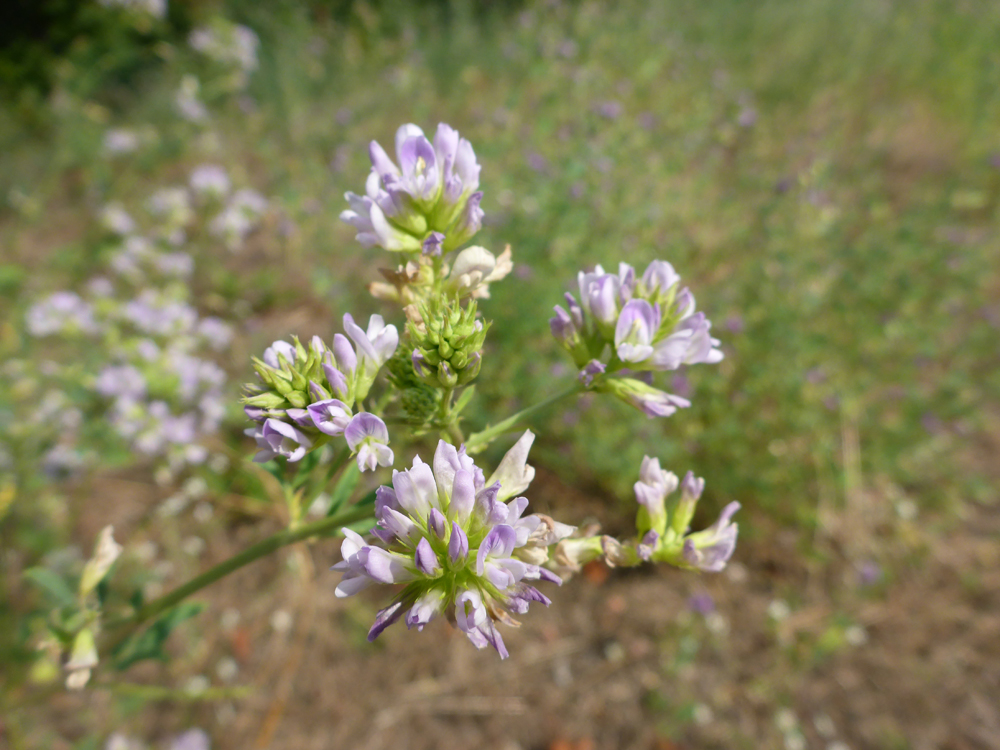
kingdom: Plantae
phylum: Tracheophyta
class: Magnoliopsida
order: Fabales
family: Fabaceae
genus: Medicago
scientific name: Medicago varia
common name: Sand lucerne
